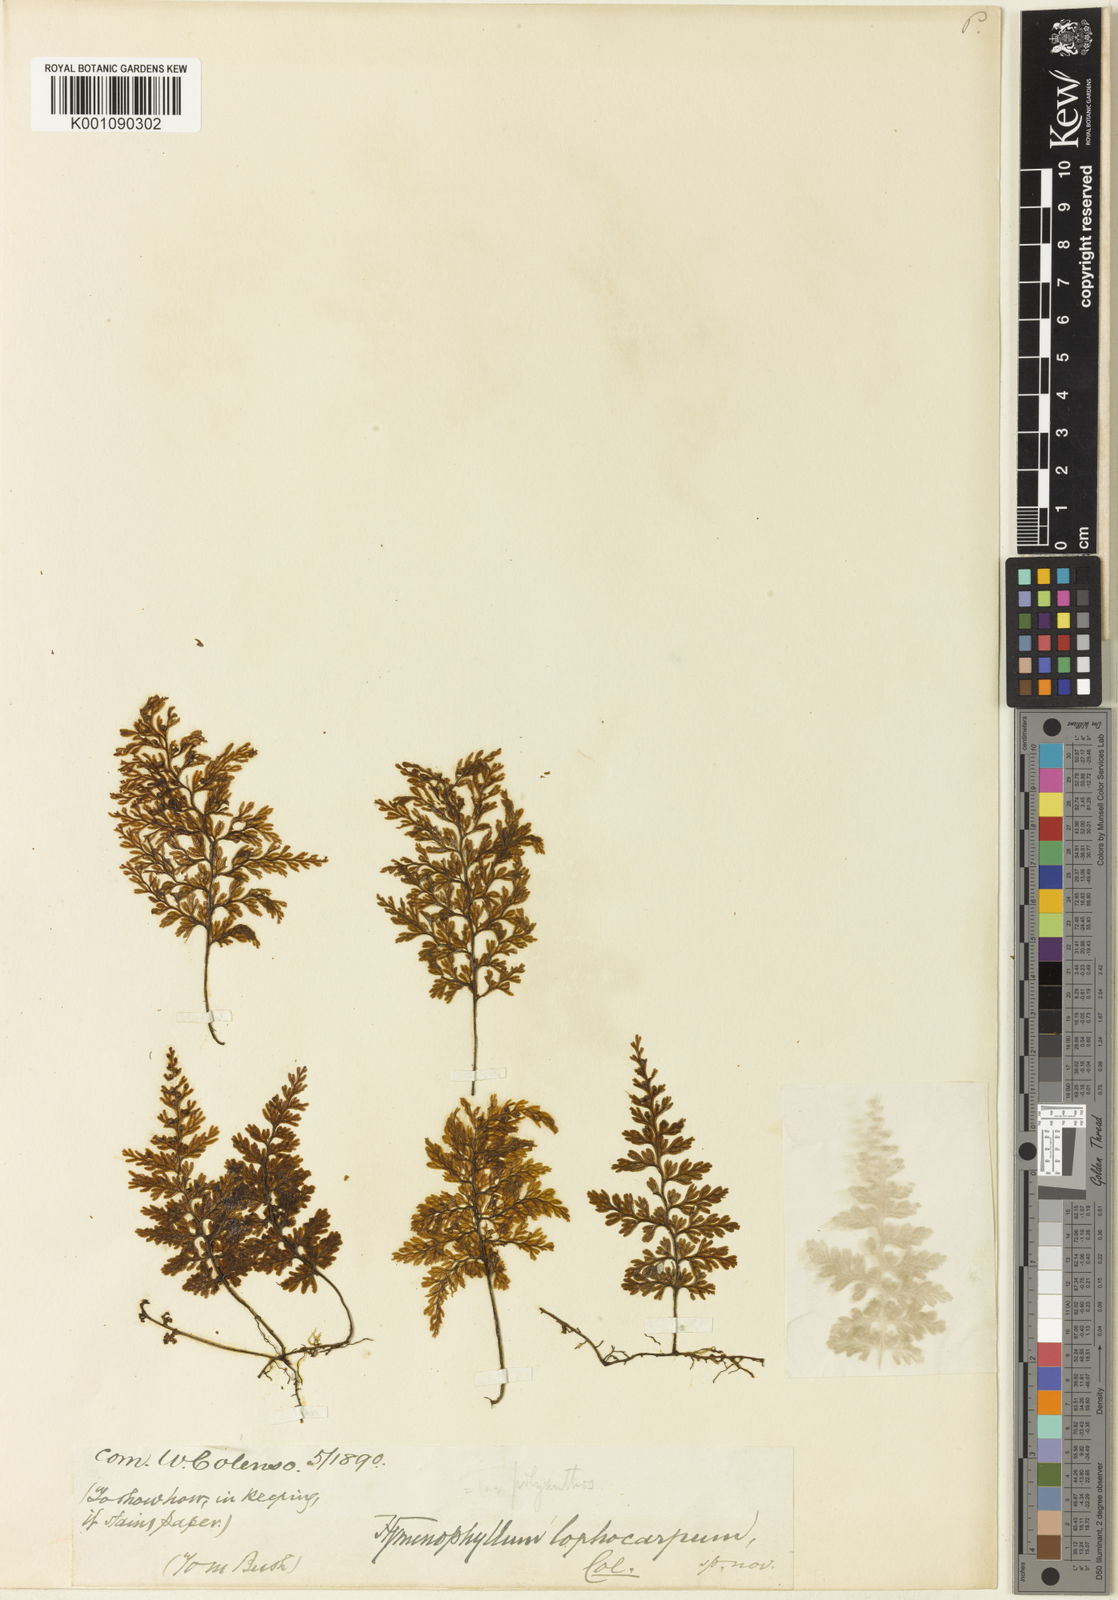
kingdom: Plantae
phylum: Tracheophyta
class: Polypodiopsida
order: Hymenophyllales
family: Hymenophyllaceae
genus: Hymenophyllum
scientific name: Hymenophyllum sanguinolentum
